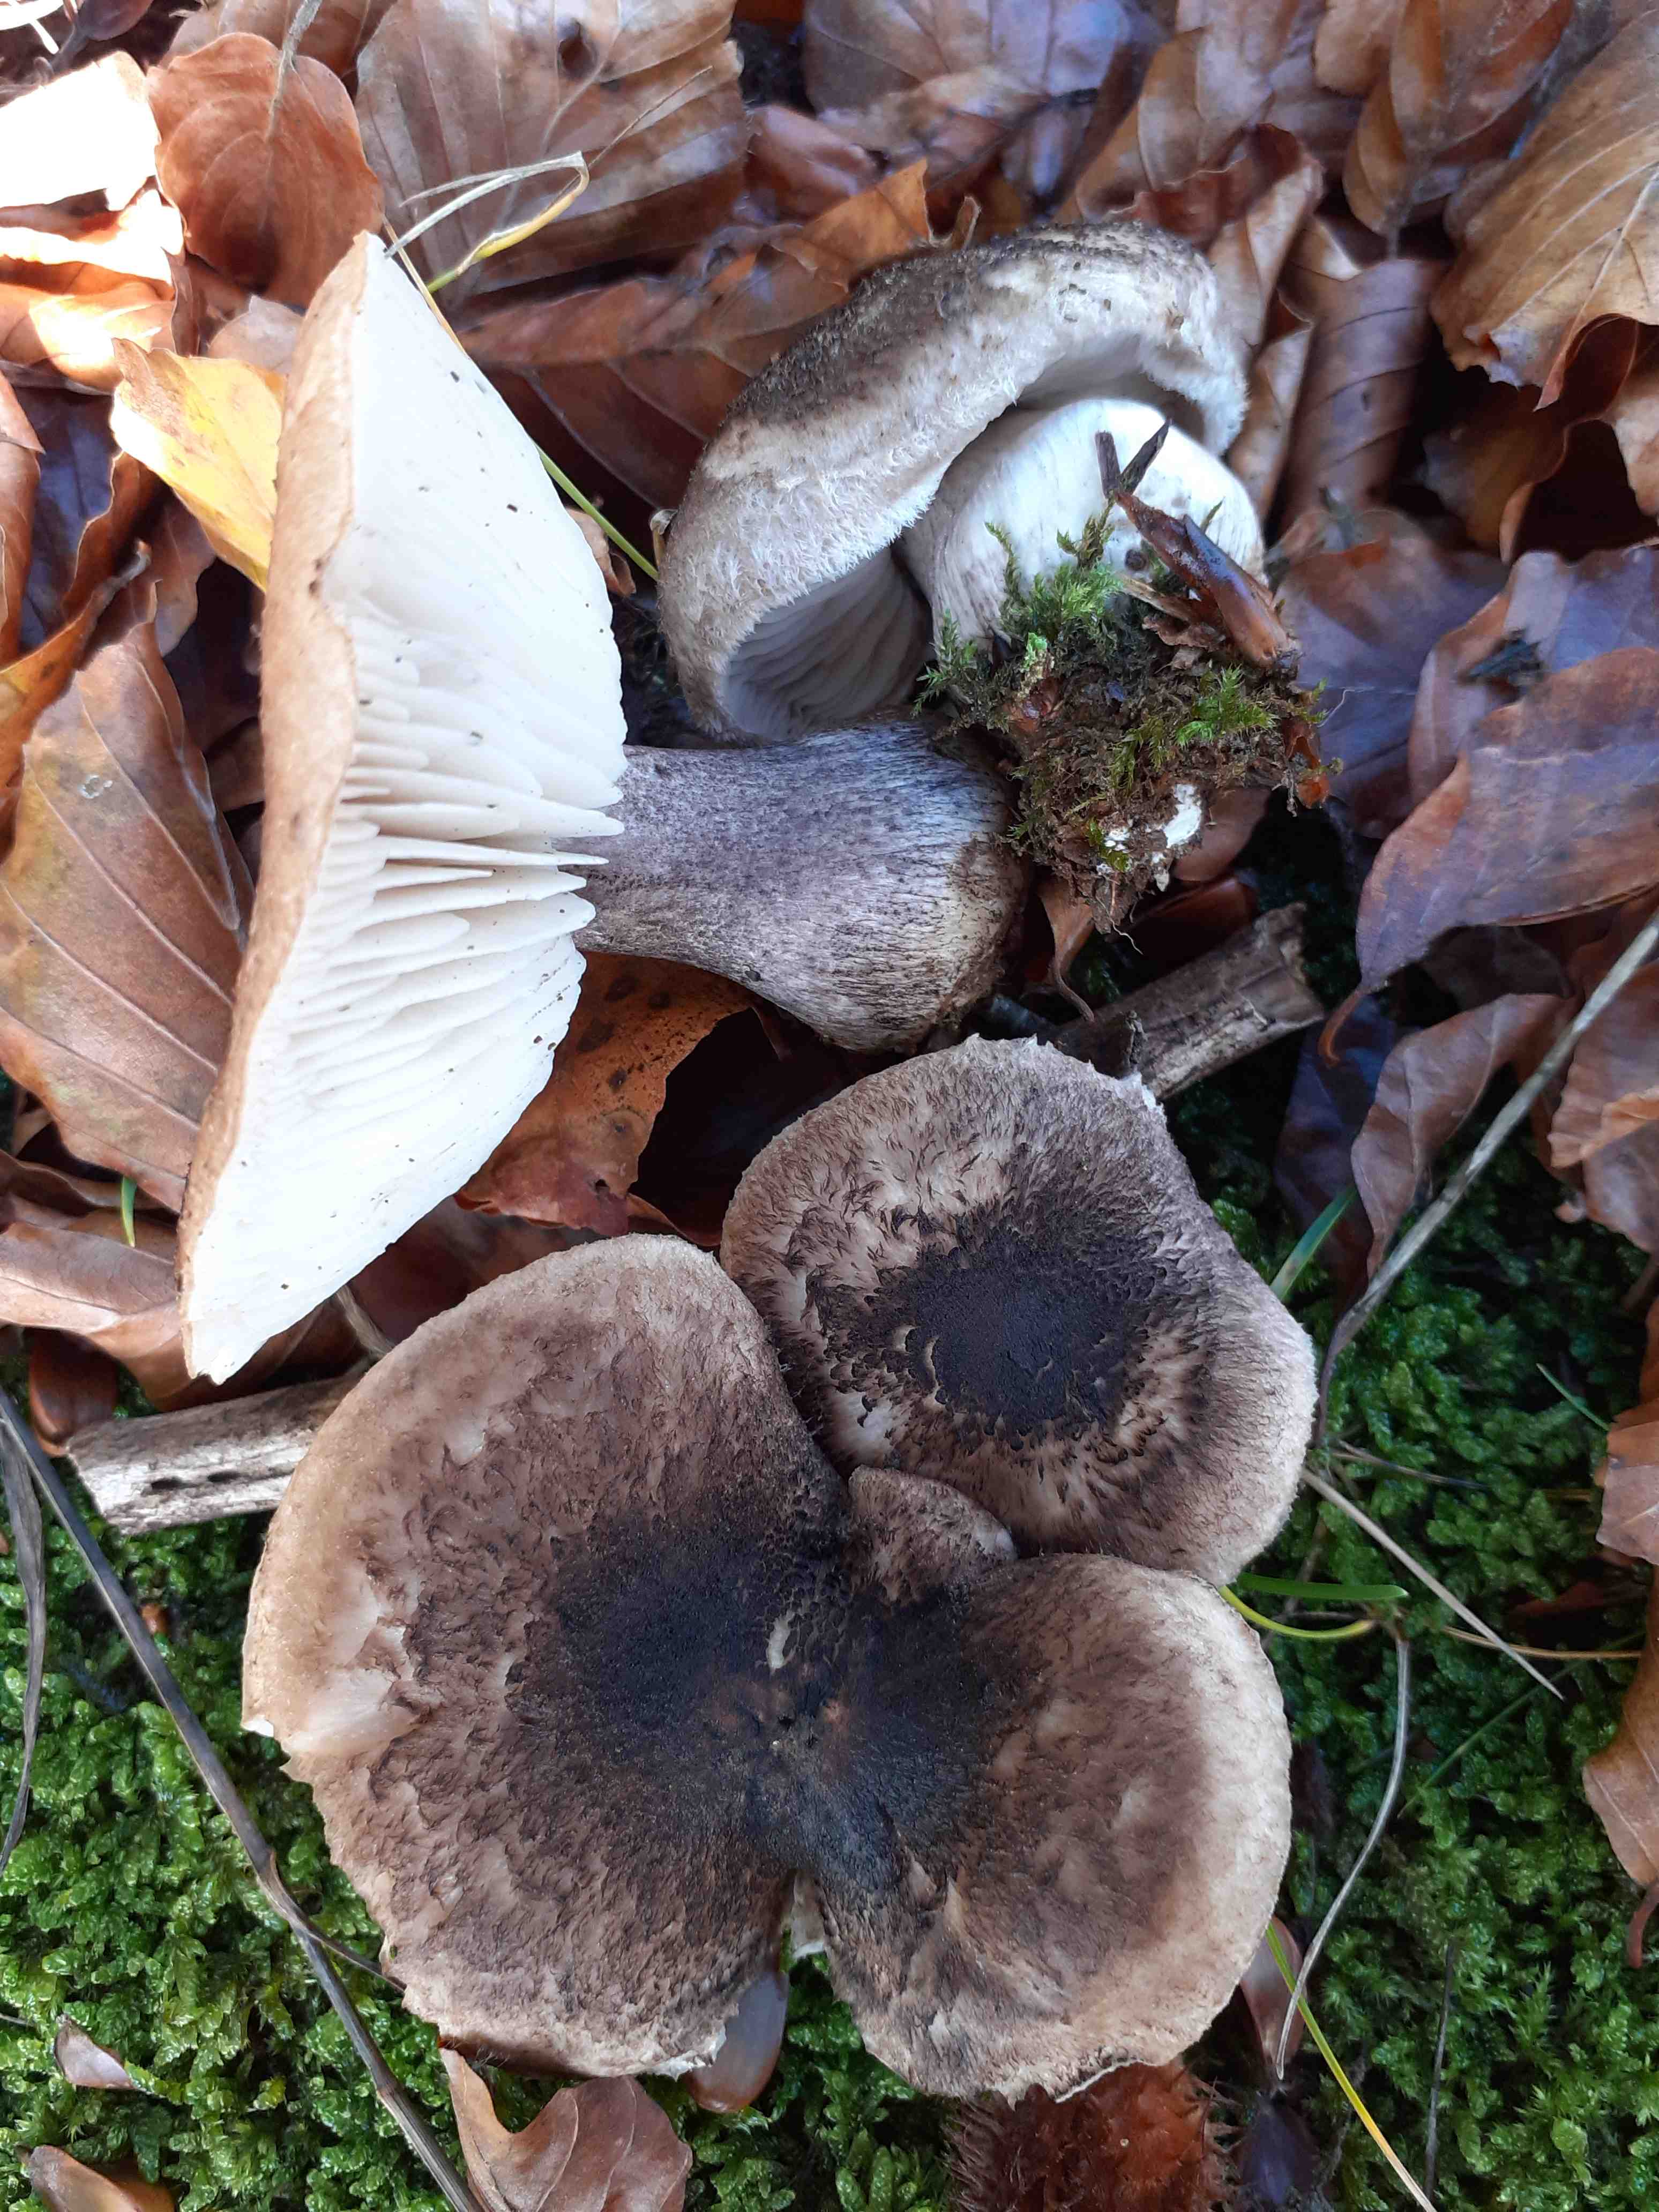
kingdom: Fungi
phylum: Basidiomycota
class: Agaricomycetes
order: Agaricales
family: Tricholomataceae
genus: Tricholoma
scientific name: Tricholoma atrosquamosum
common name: sortskællet ridderhat
